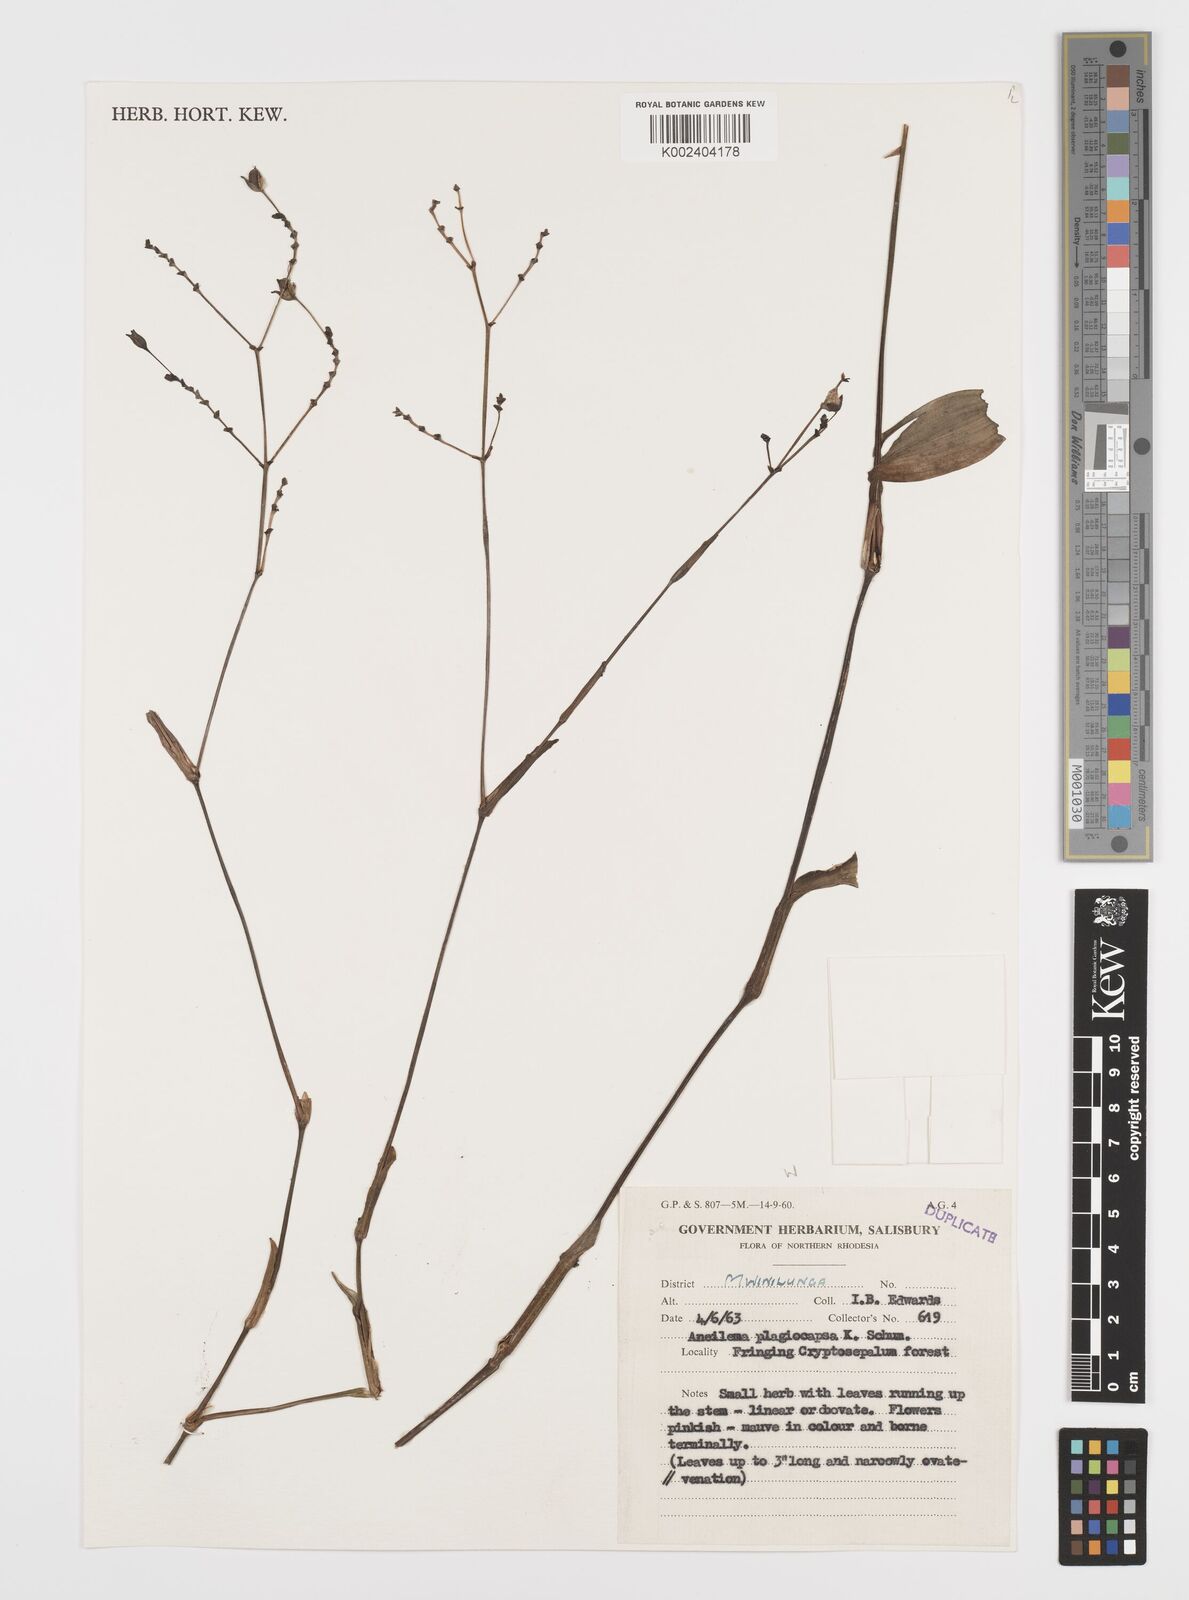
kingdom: Plantae
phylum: Tracheophyta
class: Liliopsida
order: Commelinales
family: Commelinaceae
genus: Aneilema
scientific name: Aneilema plagiocapsa
